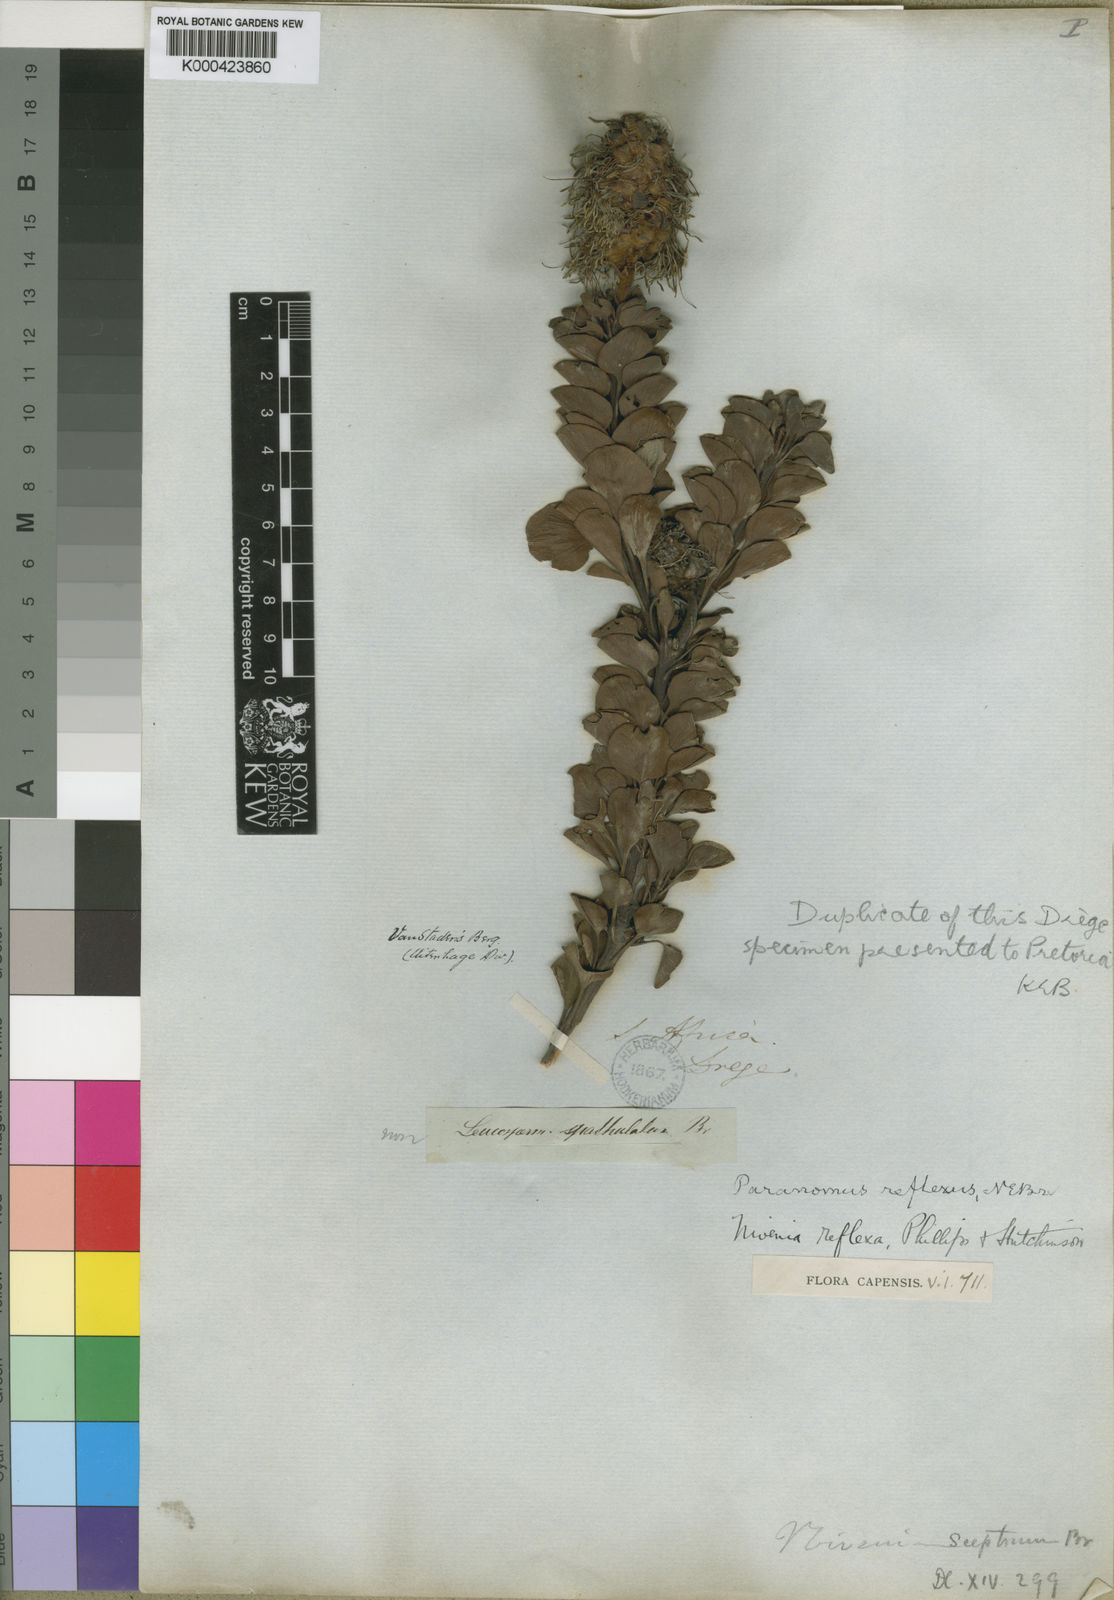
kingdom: Plantae
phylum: Tracheophyta
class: Magnoliopsida
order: Proteales
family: Proteaceae
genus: Paranomus
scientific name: Paranomus reflexus
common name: Van staden's sceptre
